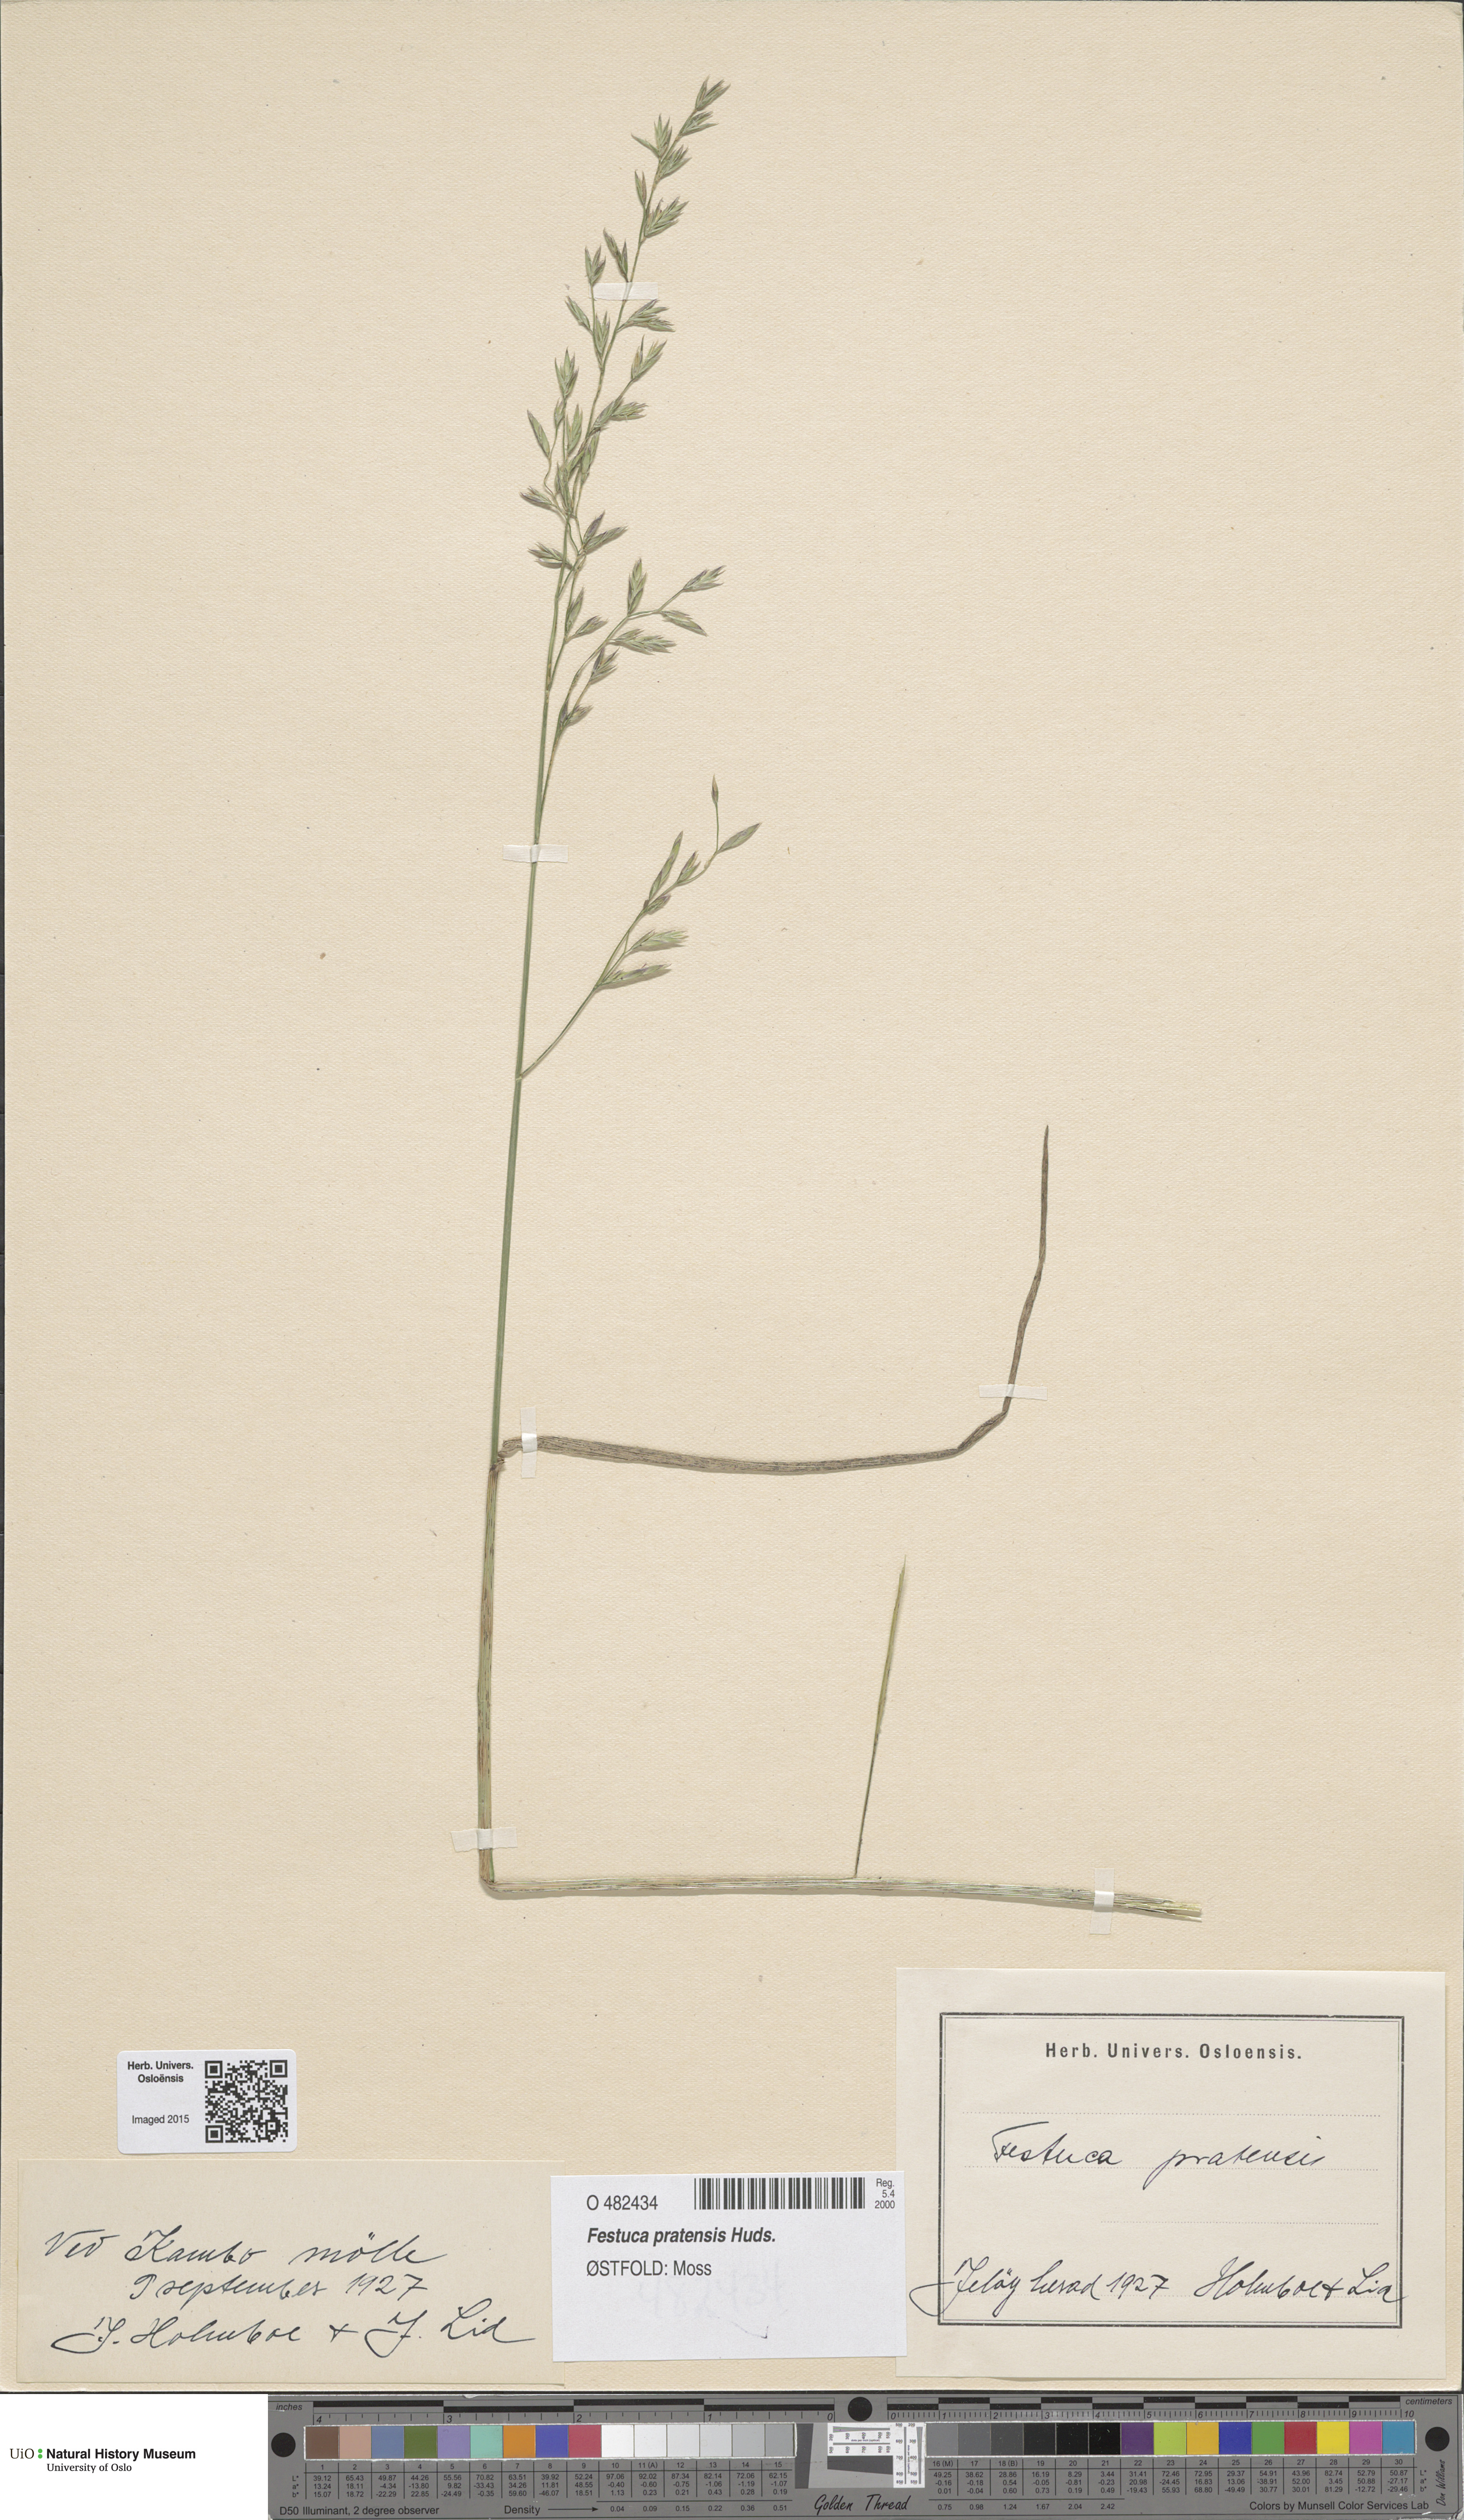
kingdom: Plantae
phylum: Tracheophyta
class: Liliopsida
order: Poales
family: Poaceae
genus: Lolium
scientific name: Lolium pratense
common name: Dover grass
